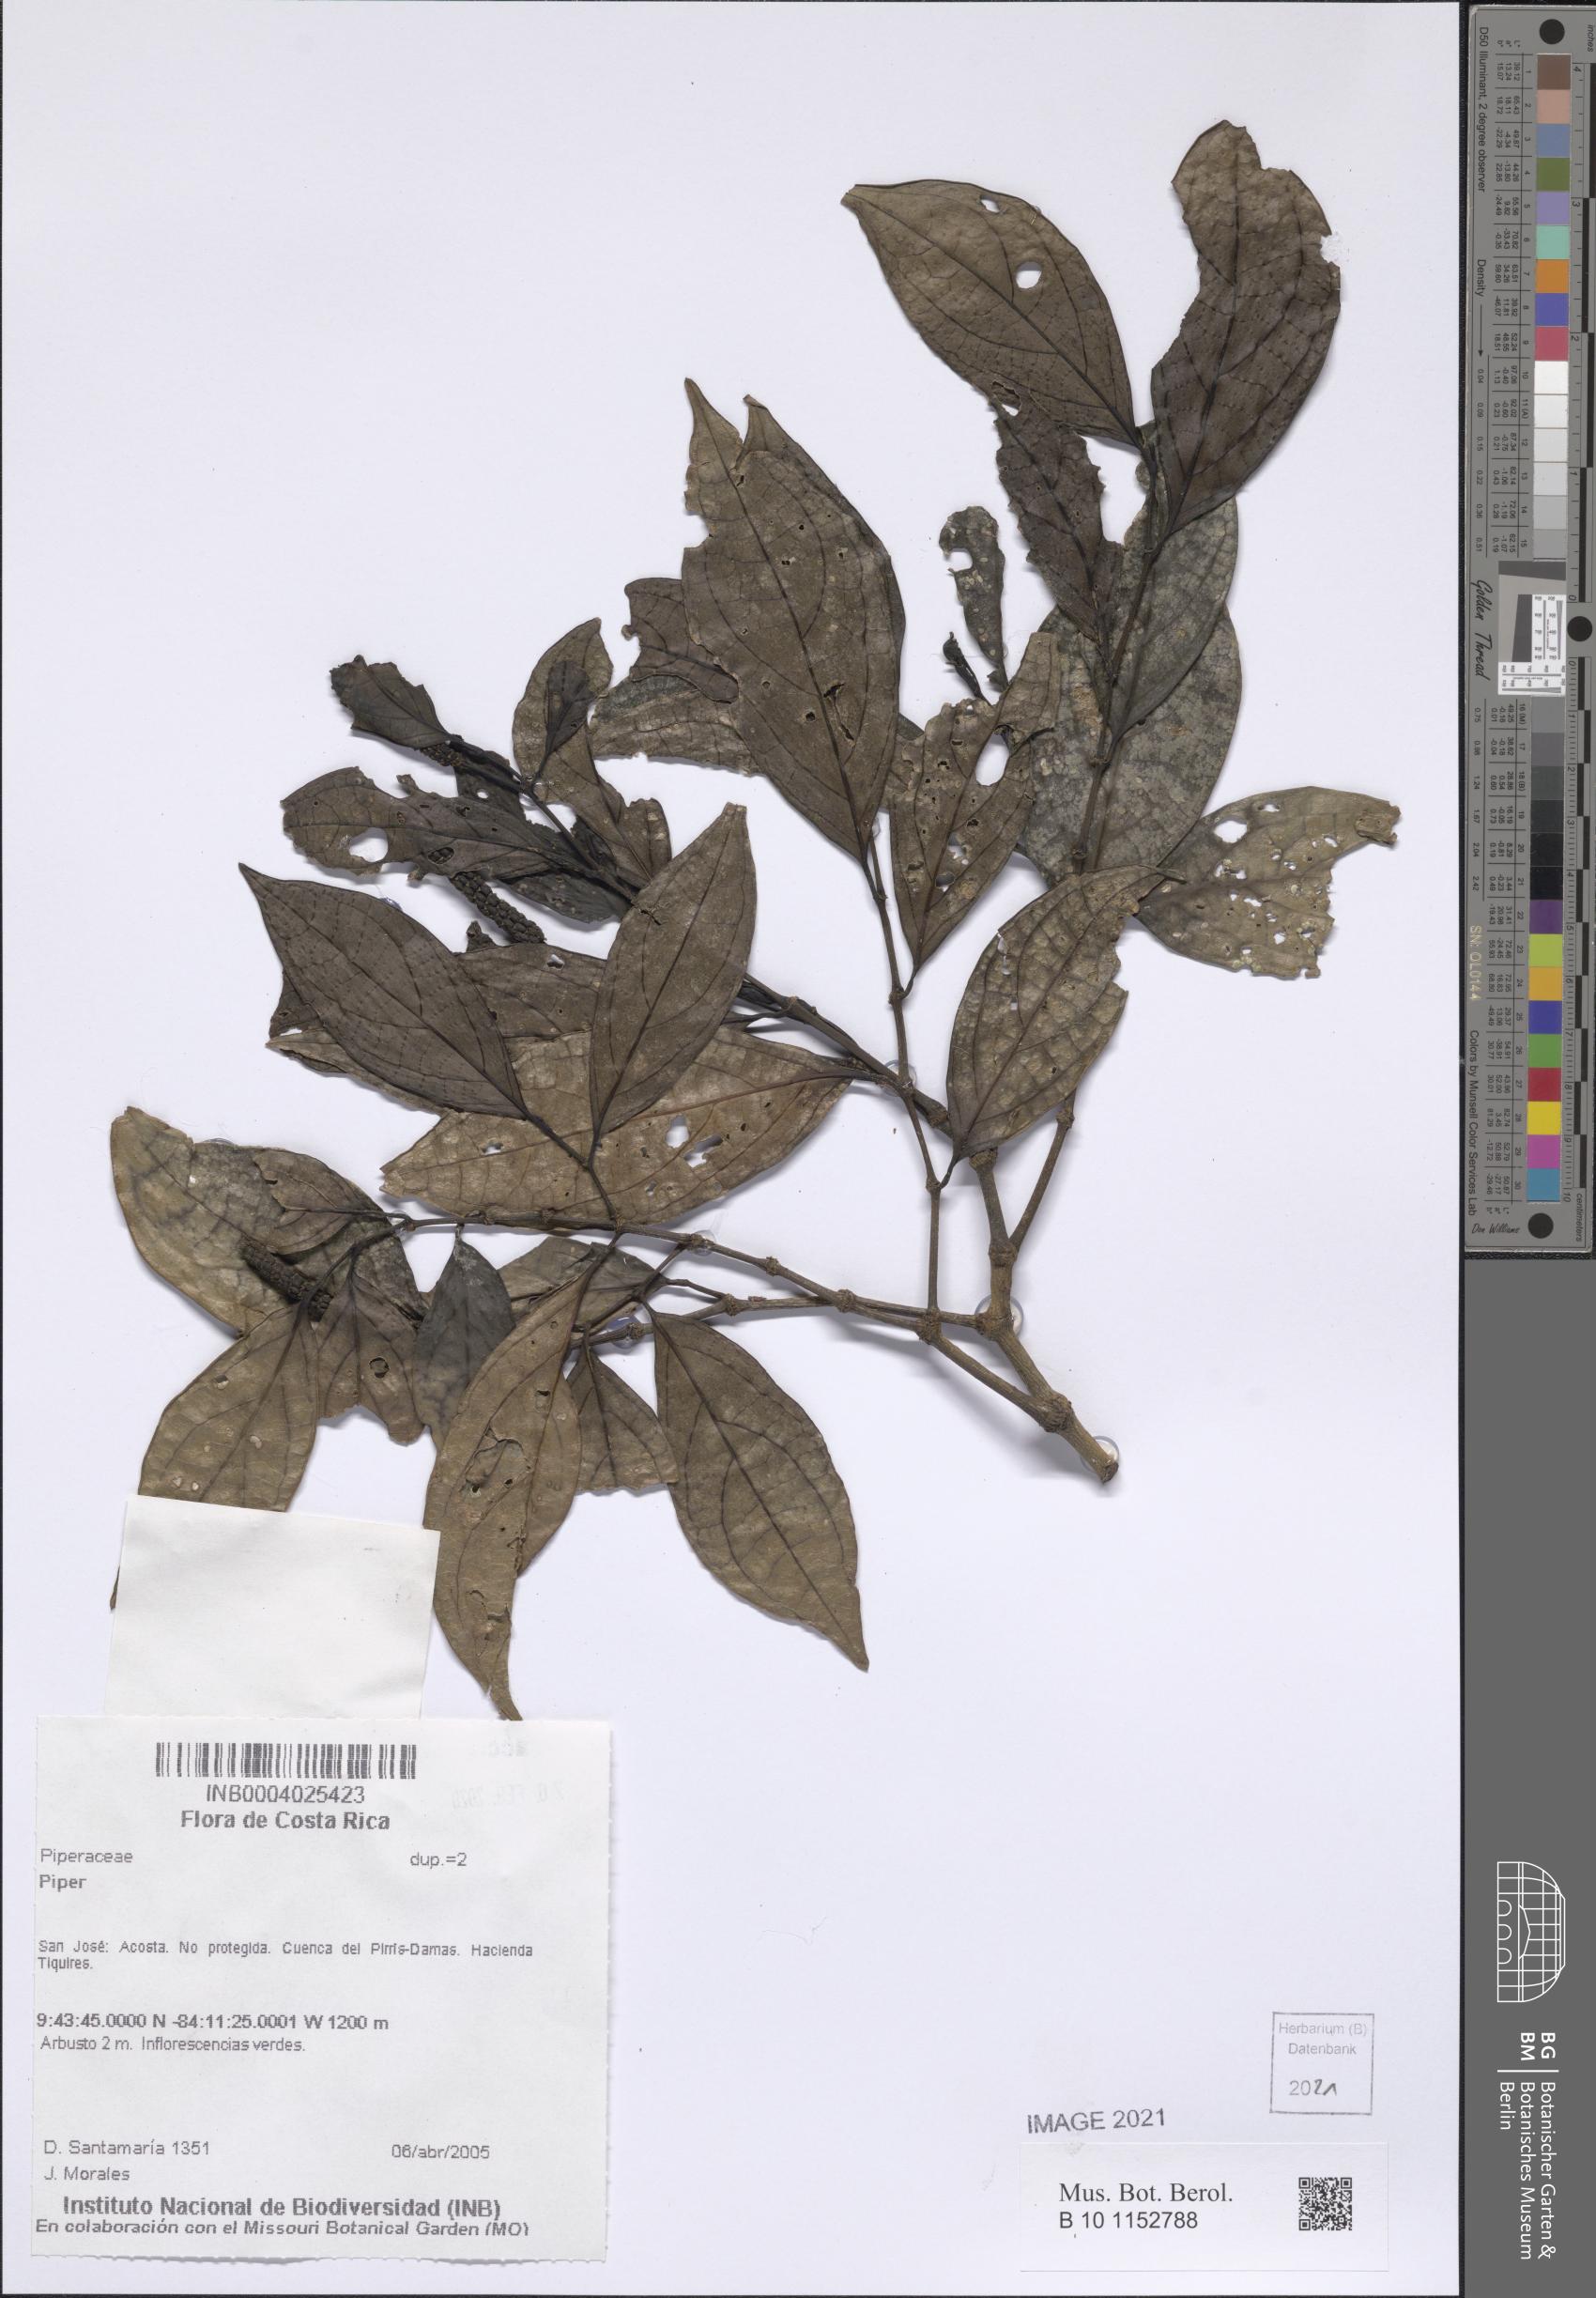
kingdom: Plantae
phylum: Tracheophyta
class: Magnoliopsida
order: Piperales
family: Piperaceae
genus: Piper
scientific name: Piper decurrens
